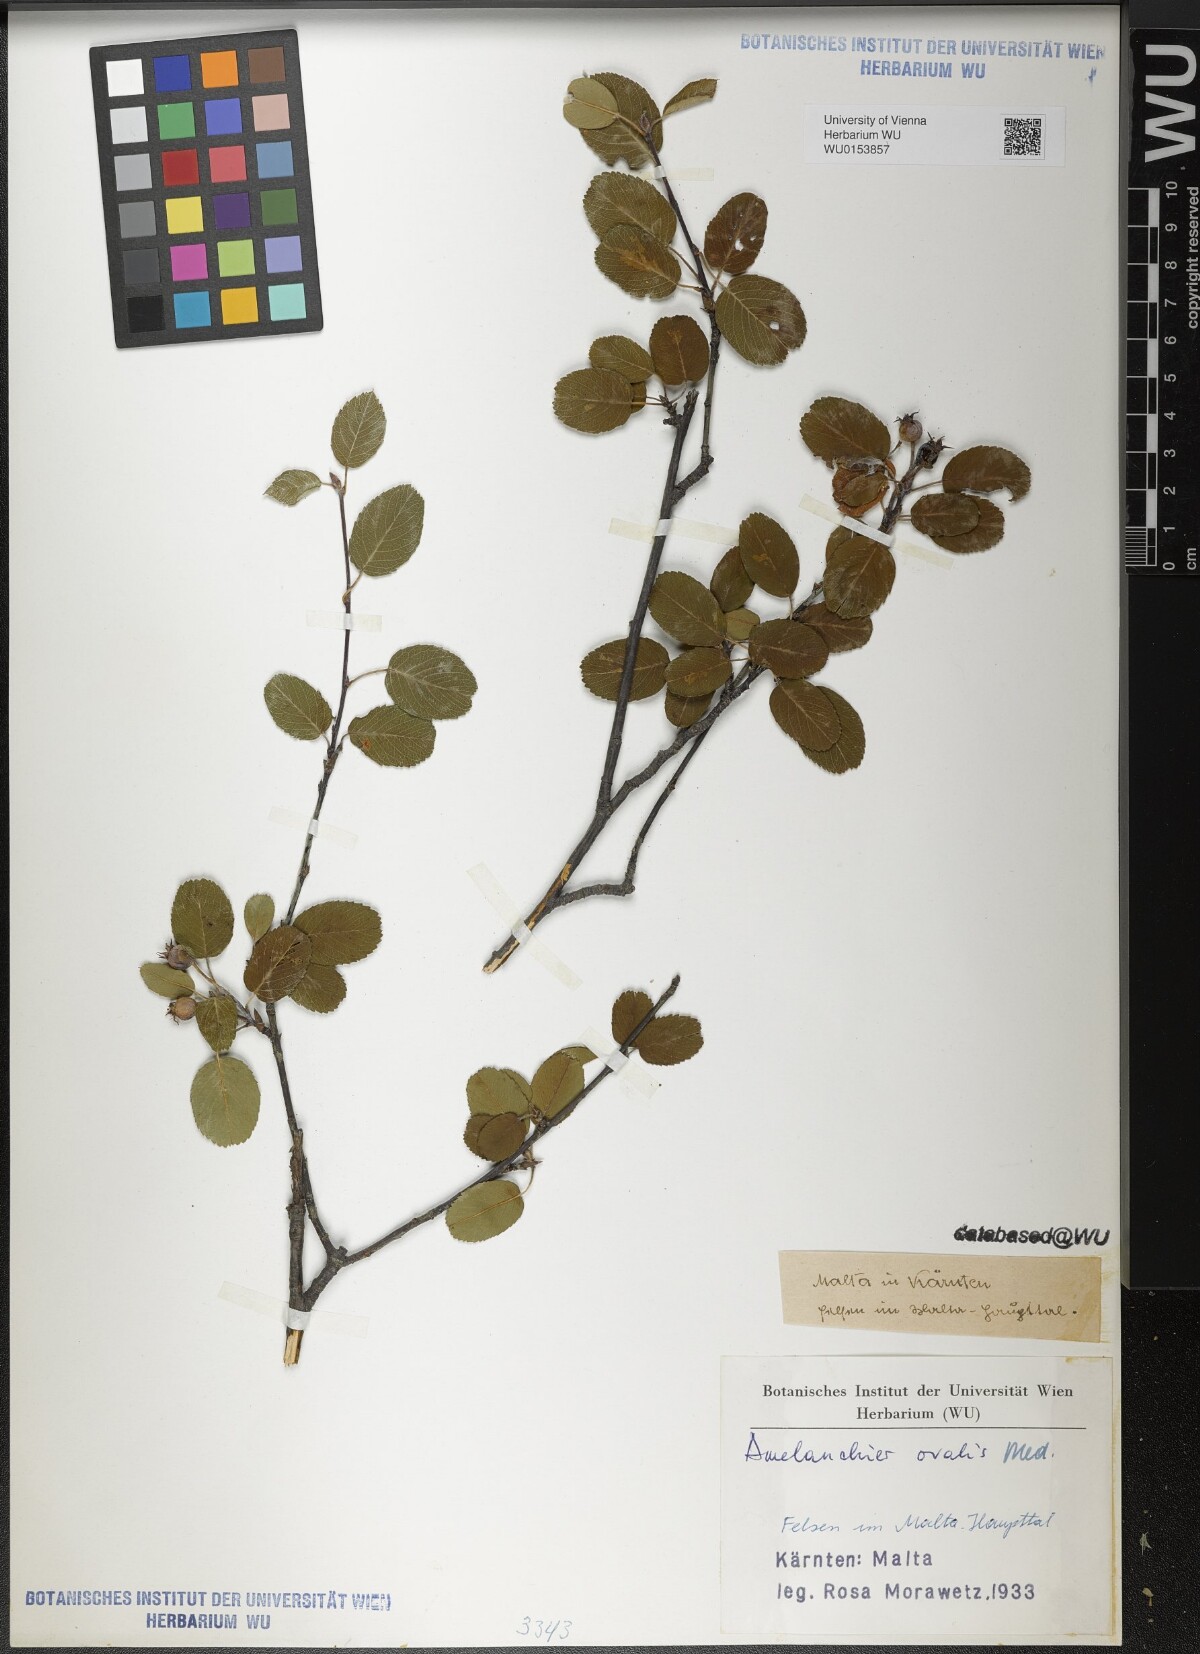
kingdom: Plantae
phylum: Tracheophyta
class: Magnoliopsida
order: Rosales
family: Rosaceae
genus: Amelanchier
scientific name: Amelanchier ovalis
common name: Serviceberry
